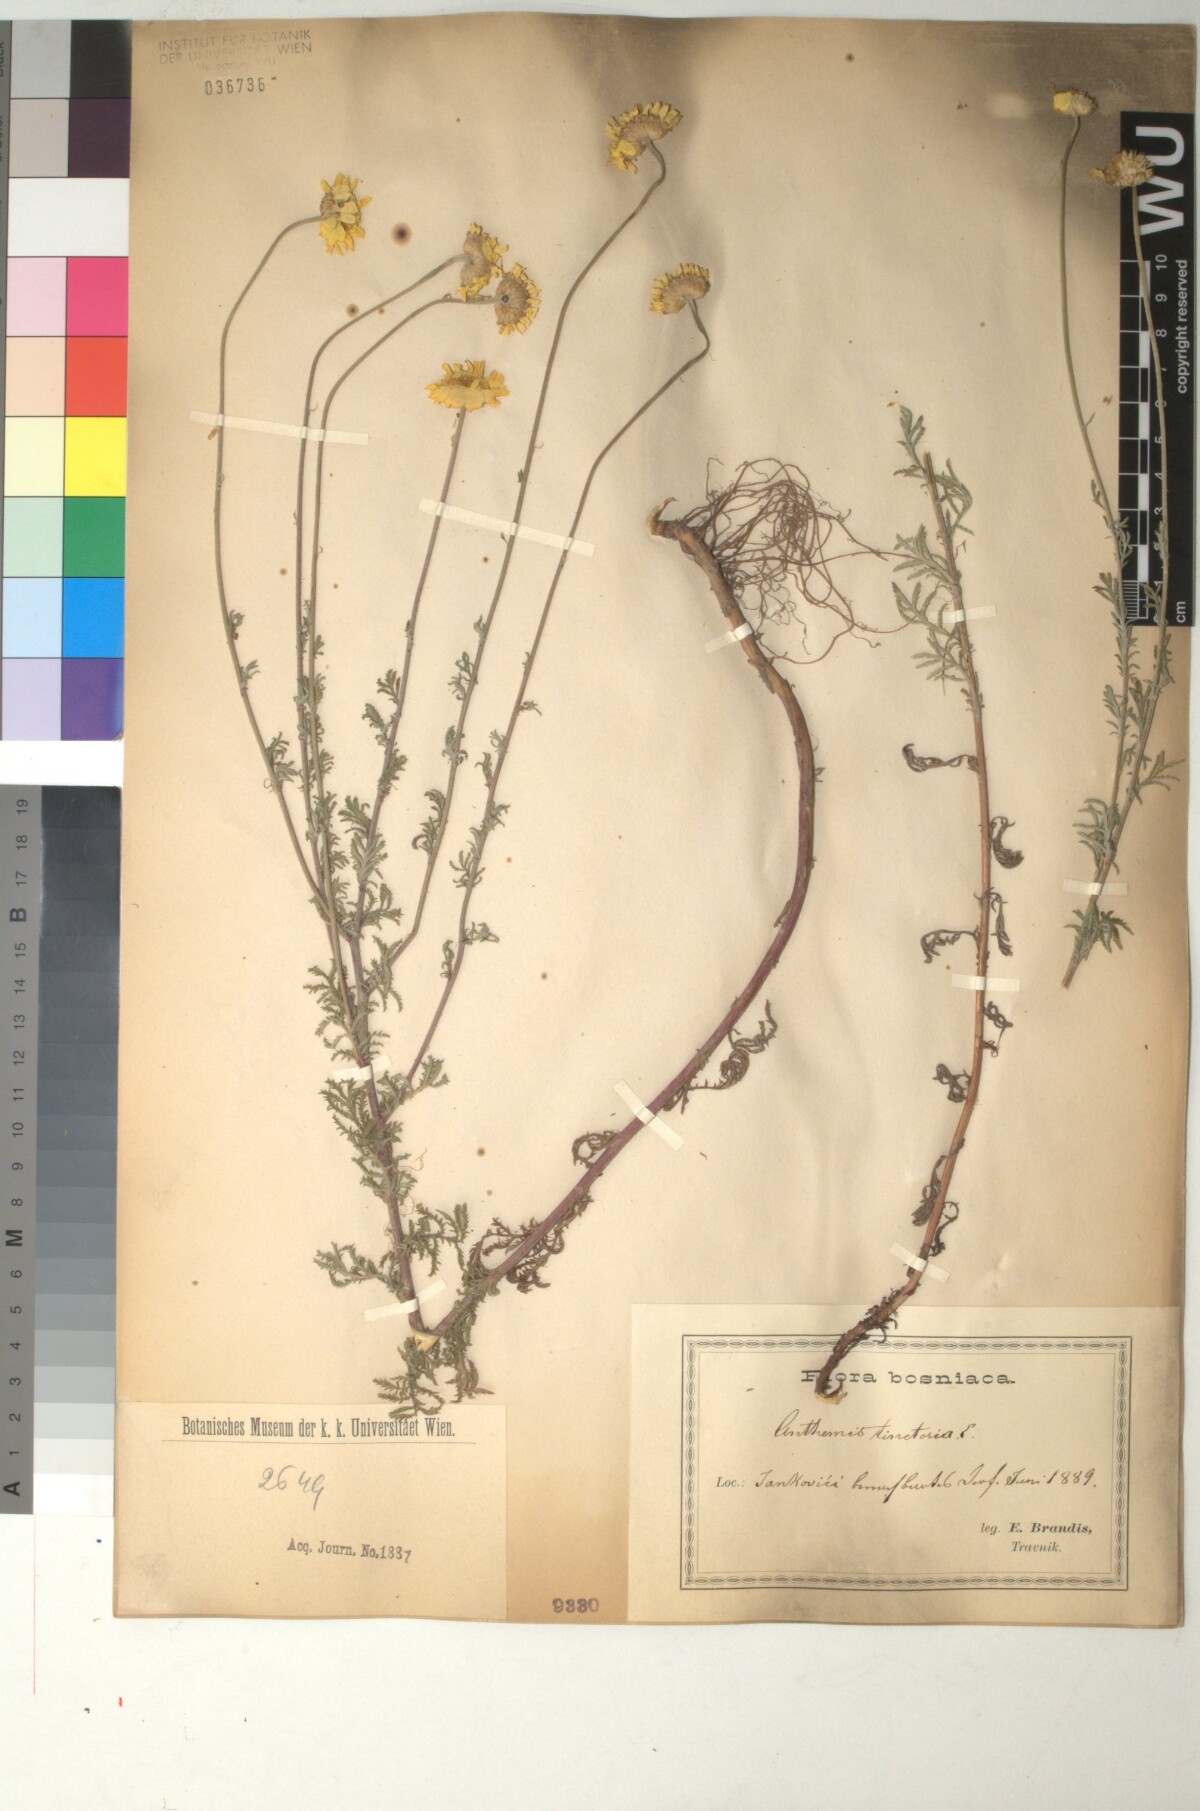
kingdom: Plantae
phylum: Tracheophyta
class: Magnoliopsida
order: Asterales
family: Asteraceae
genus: Cota
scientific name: Cota tinctoria
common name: Golden chamomile
